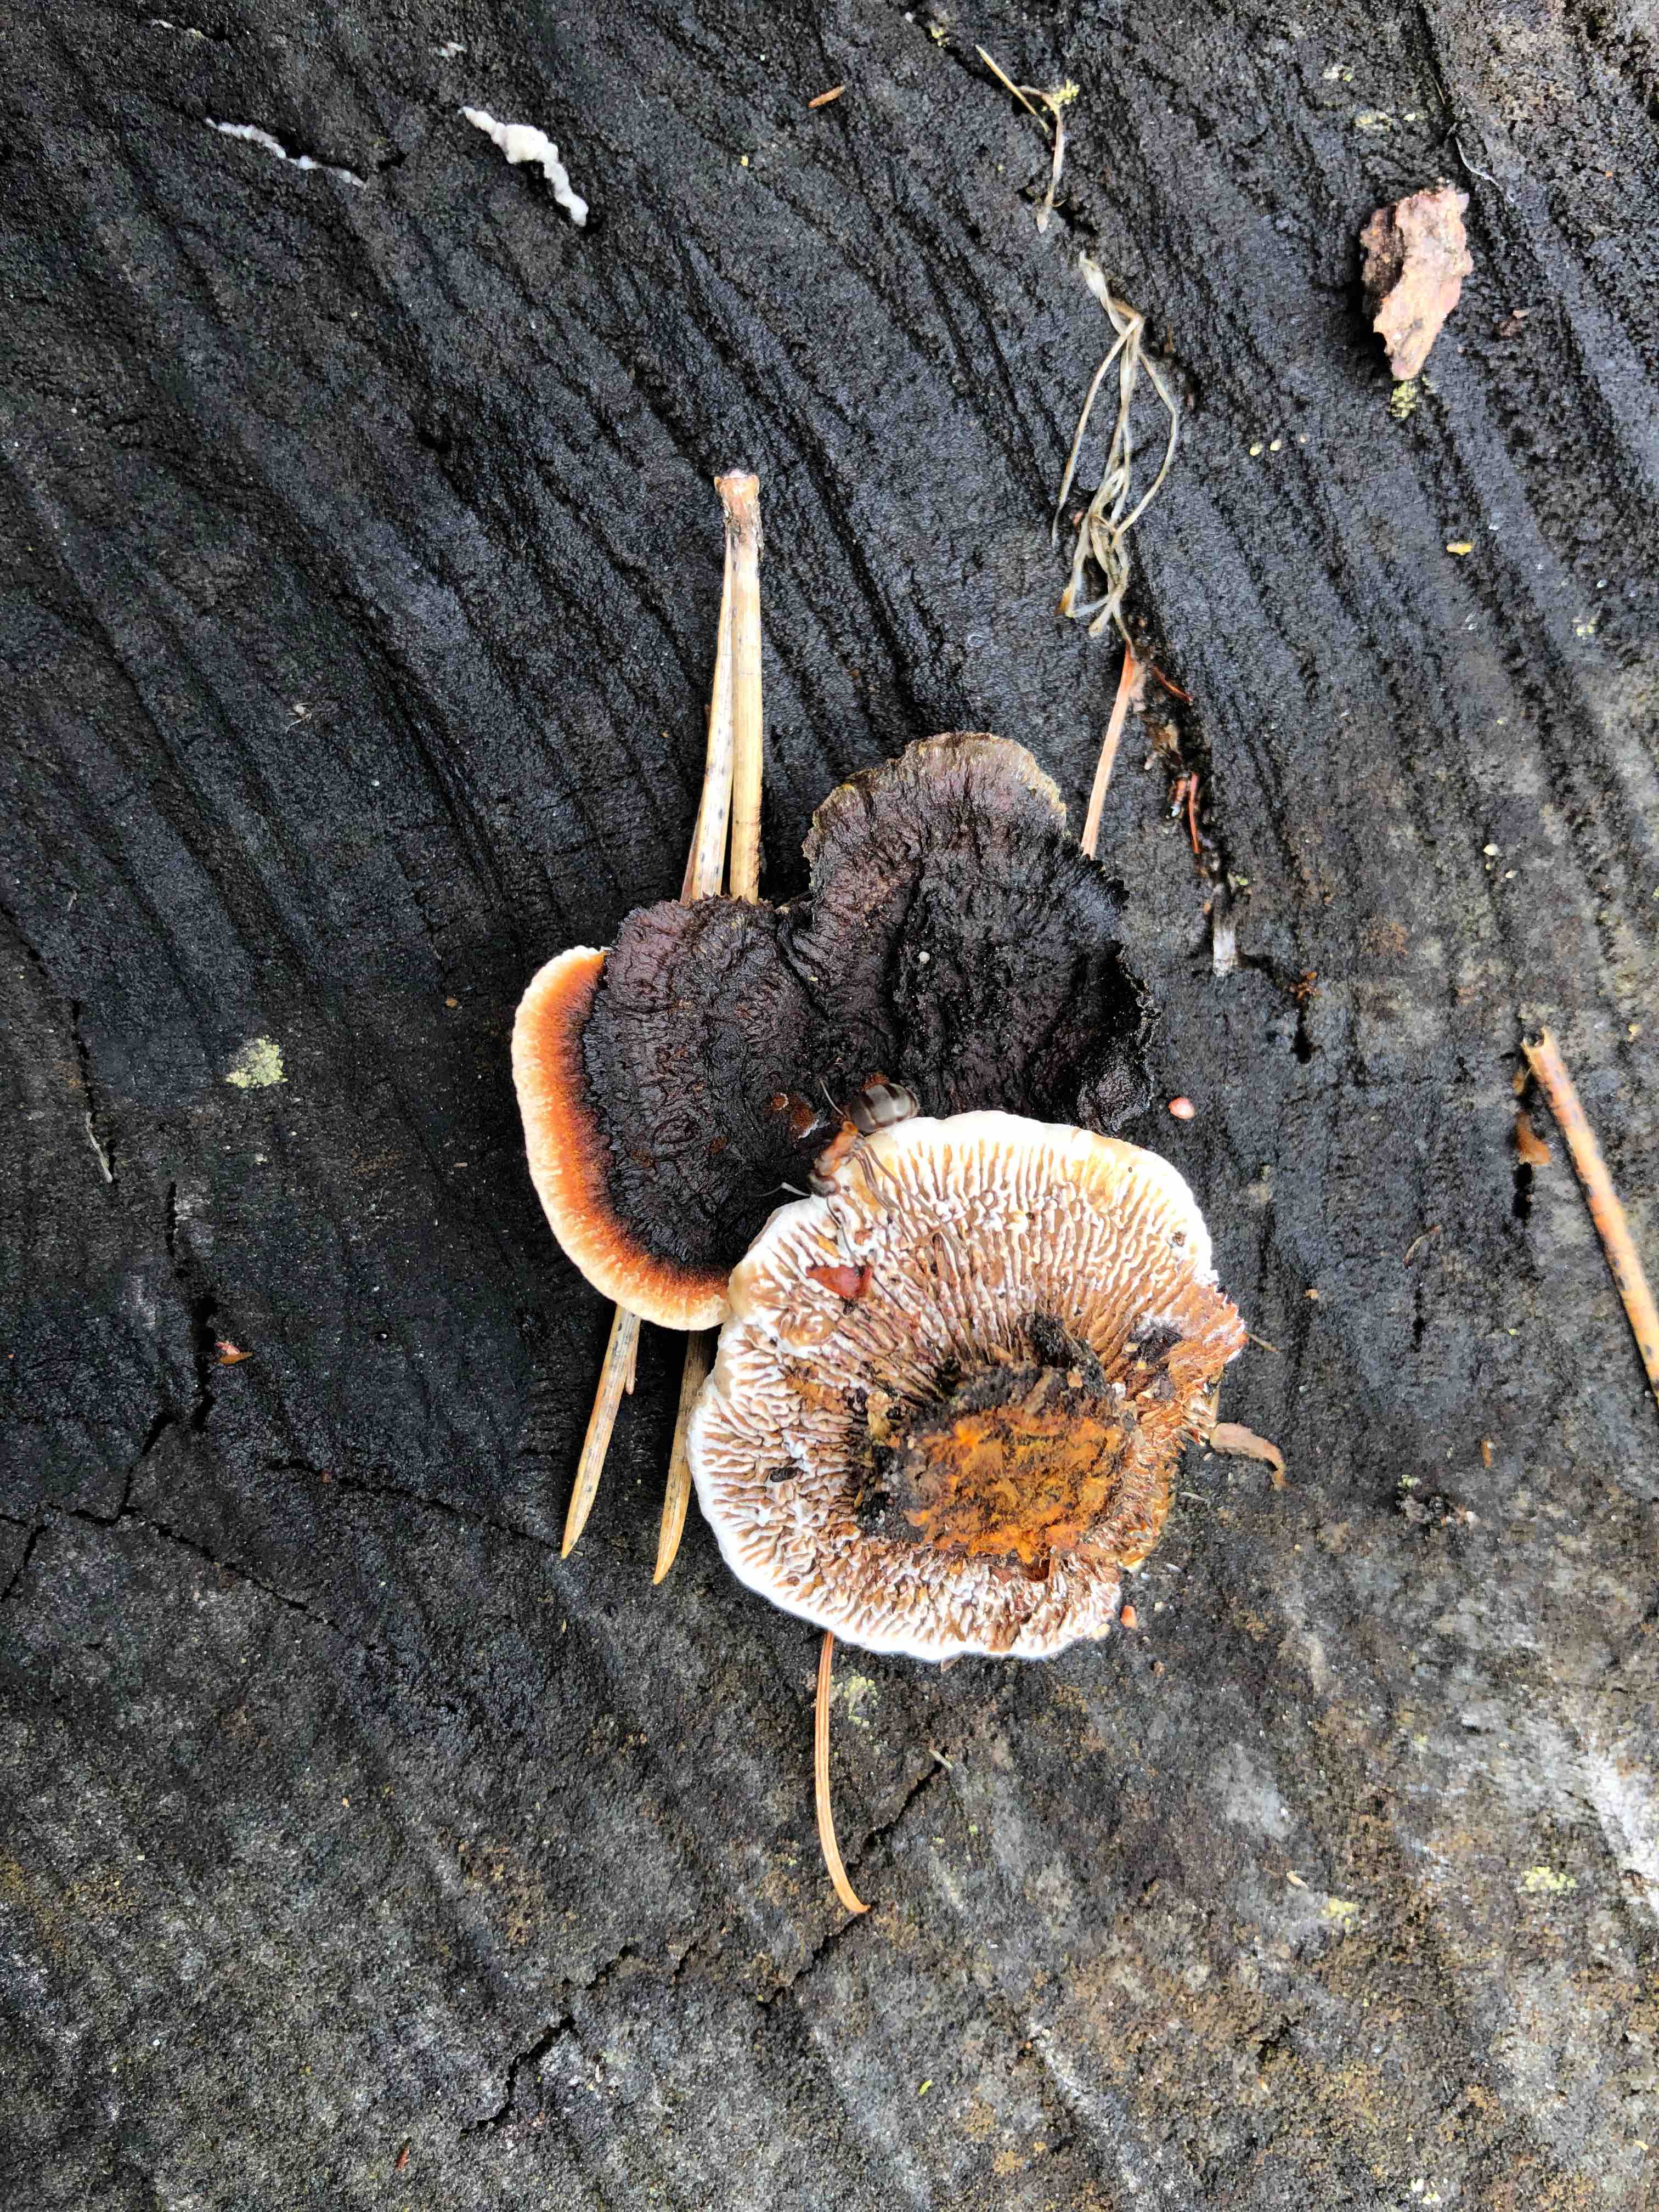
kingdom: Fungi
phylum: Basidiomycota
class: Agaricomycetes
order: Gloeophyllales
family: Gloeophyllaceae
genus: Gloeophyllum
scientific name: Gloeophyllum sepiarium
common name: fyrre-korkhat
